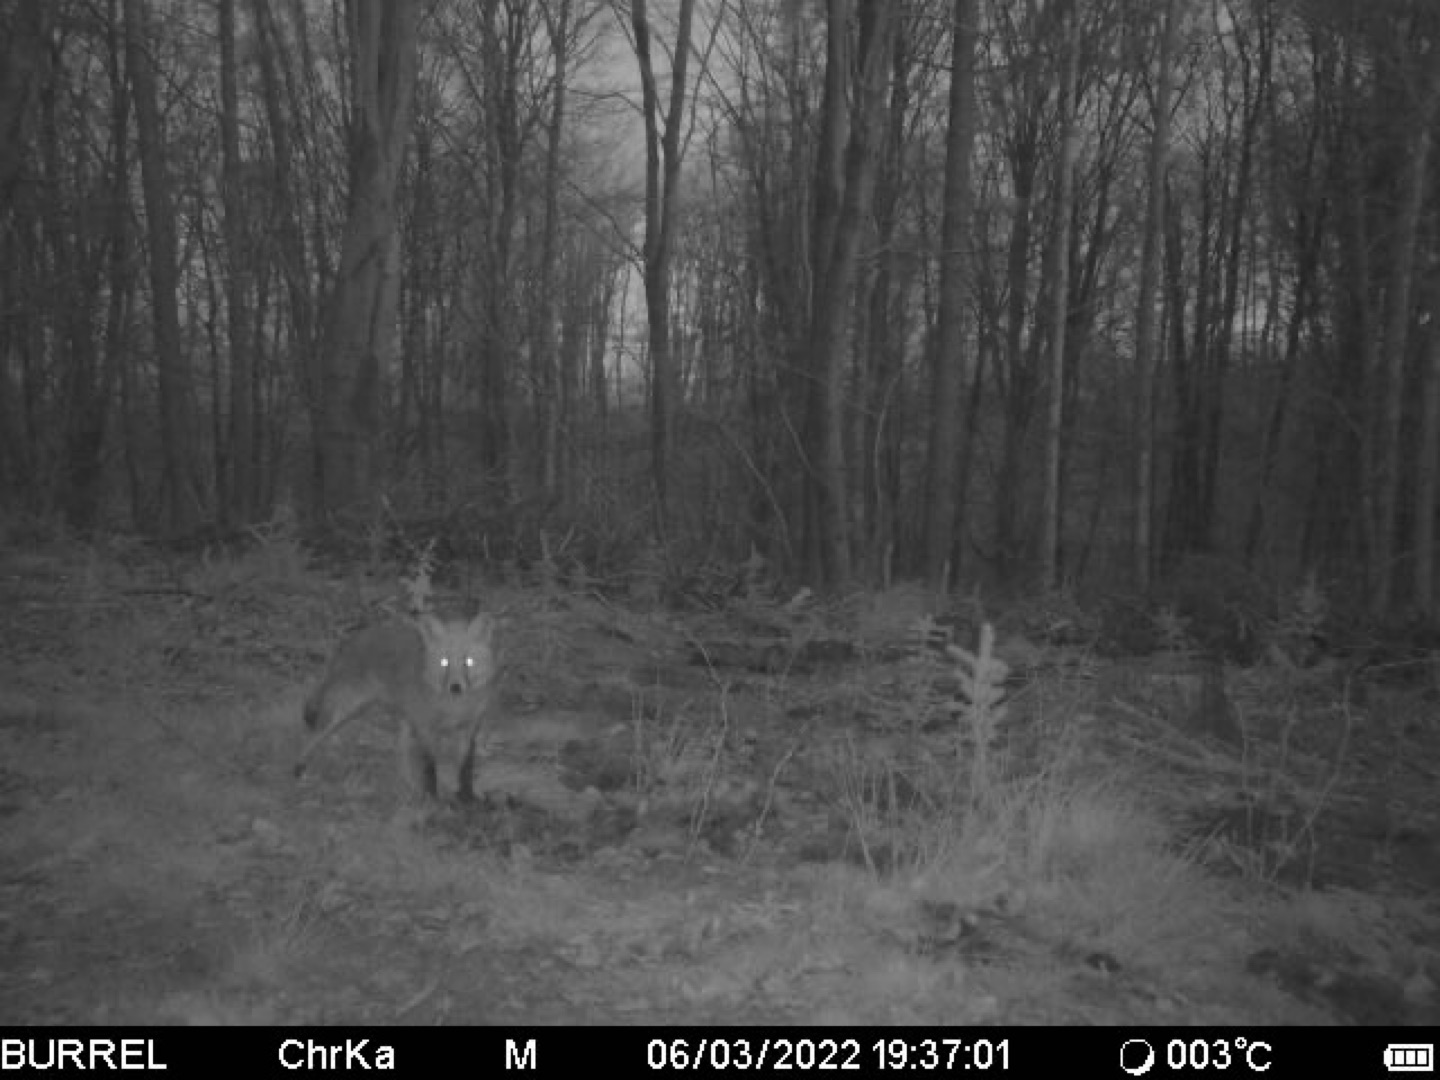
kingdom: Animalia
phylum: Chordata
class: Mammalia
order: Carnivora
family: Canidae
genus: Vulpes
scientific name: Vulpes vulpes
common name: Ræv
